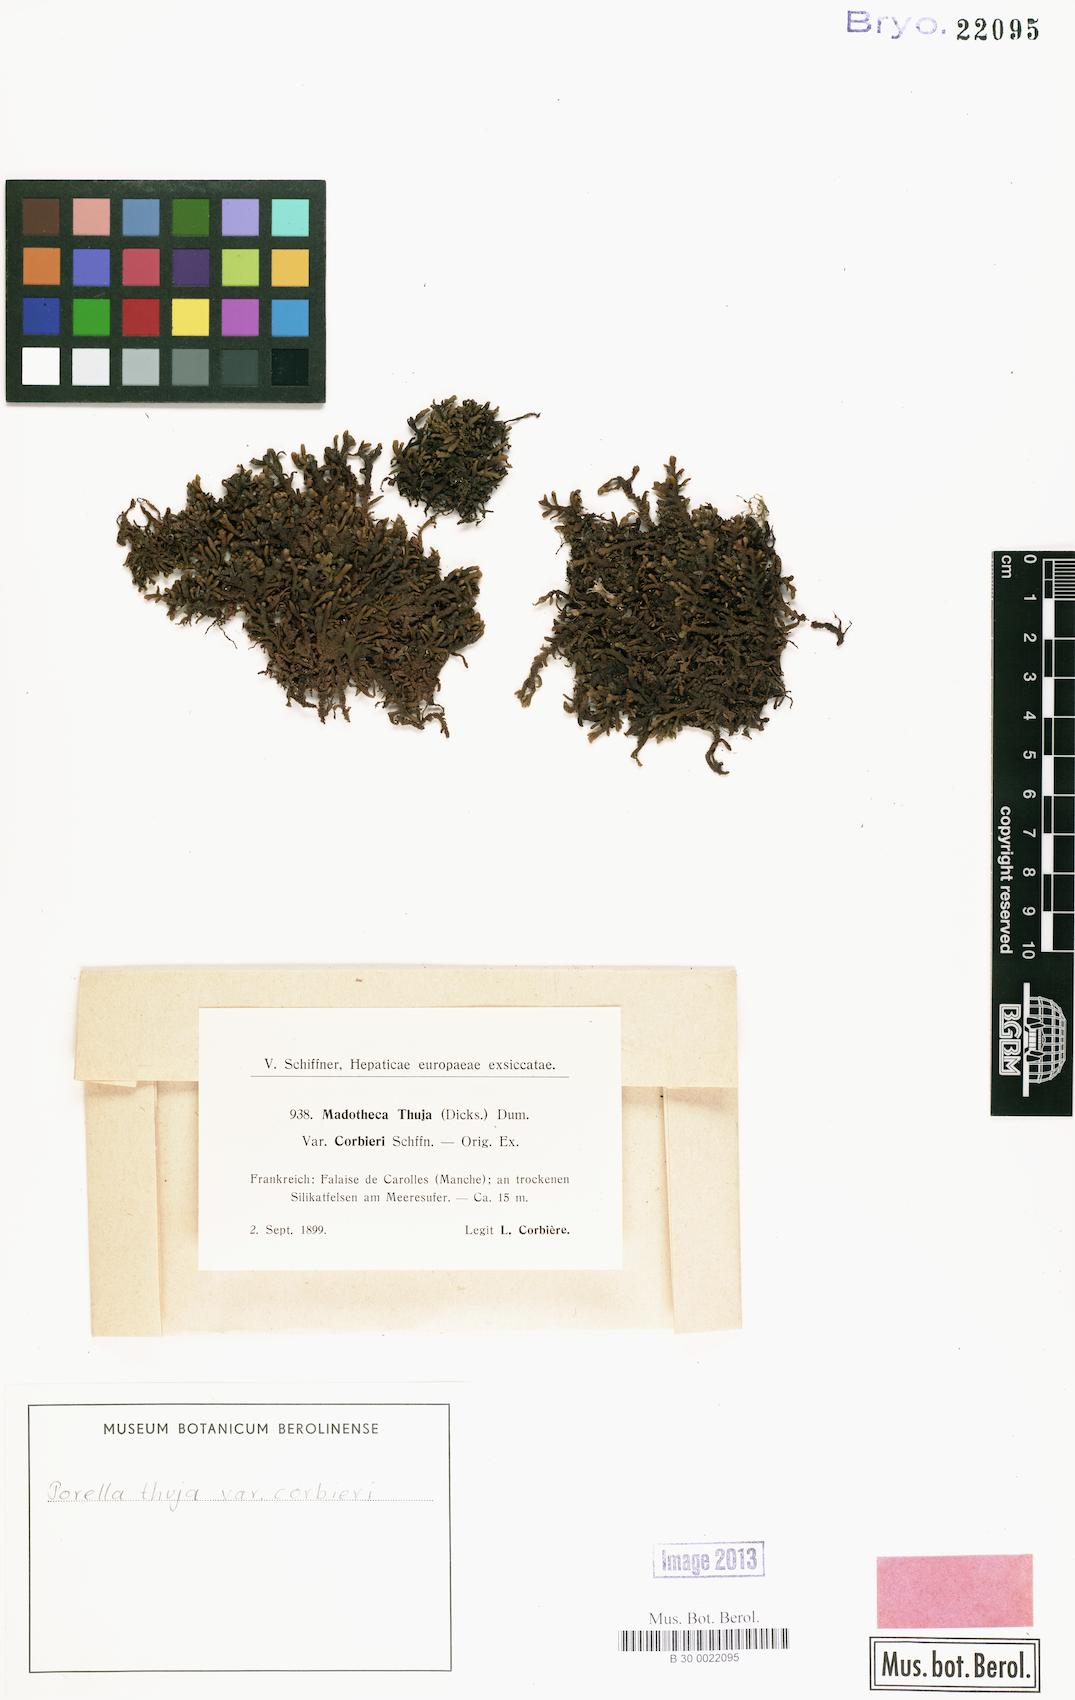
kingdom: Plantae
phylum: Marchantiophyta
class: Jungermanniopsida
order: Porellales
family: Porellaceae
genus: Porella
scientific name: Porella arboris-vitae
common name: Bitter scalewort
